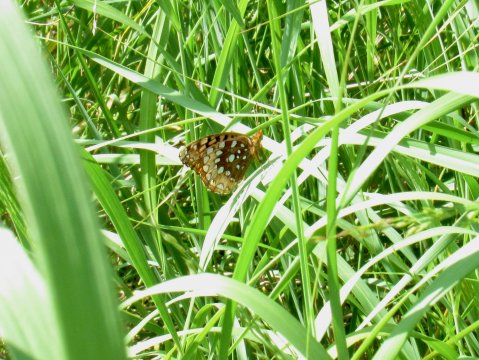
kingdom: Animalia
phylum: Arthropoda
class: Insecta
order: Lepidoptera
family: Nymphalidae
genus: Speyeria
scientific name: Speyeria cybele
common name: Great Spangled Fritillary
